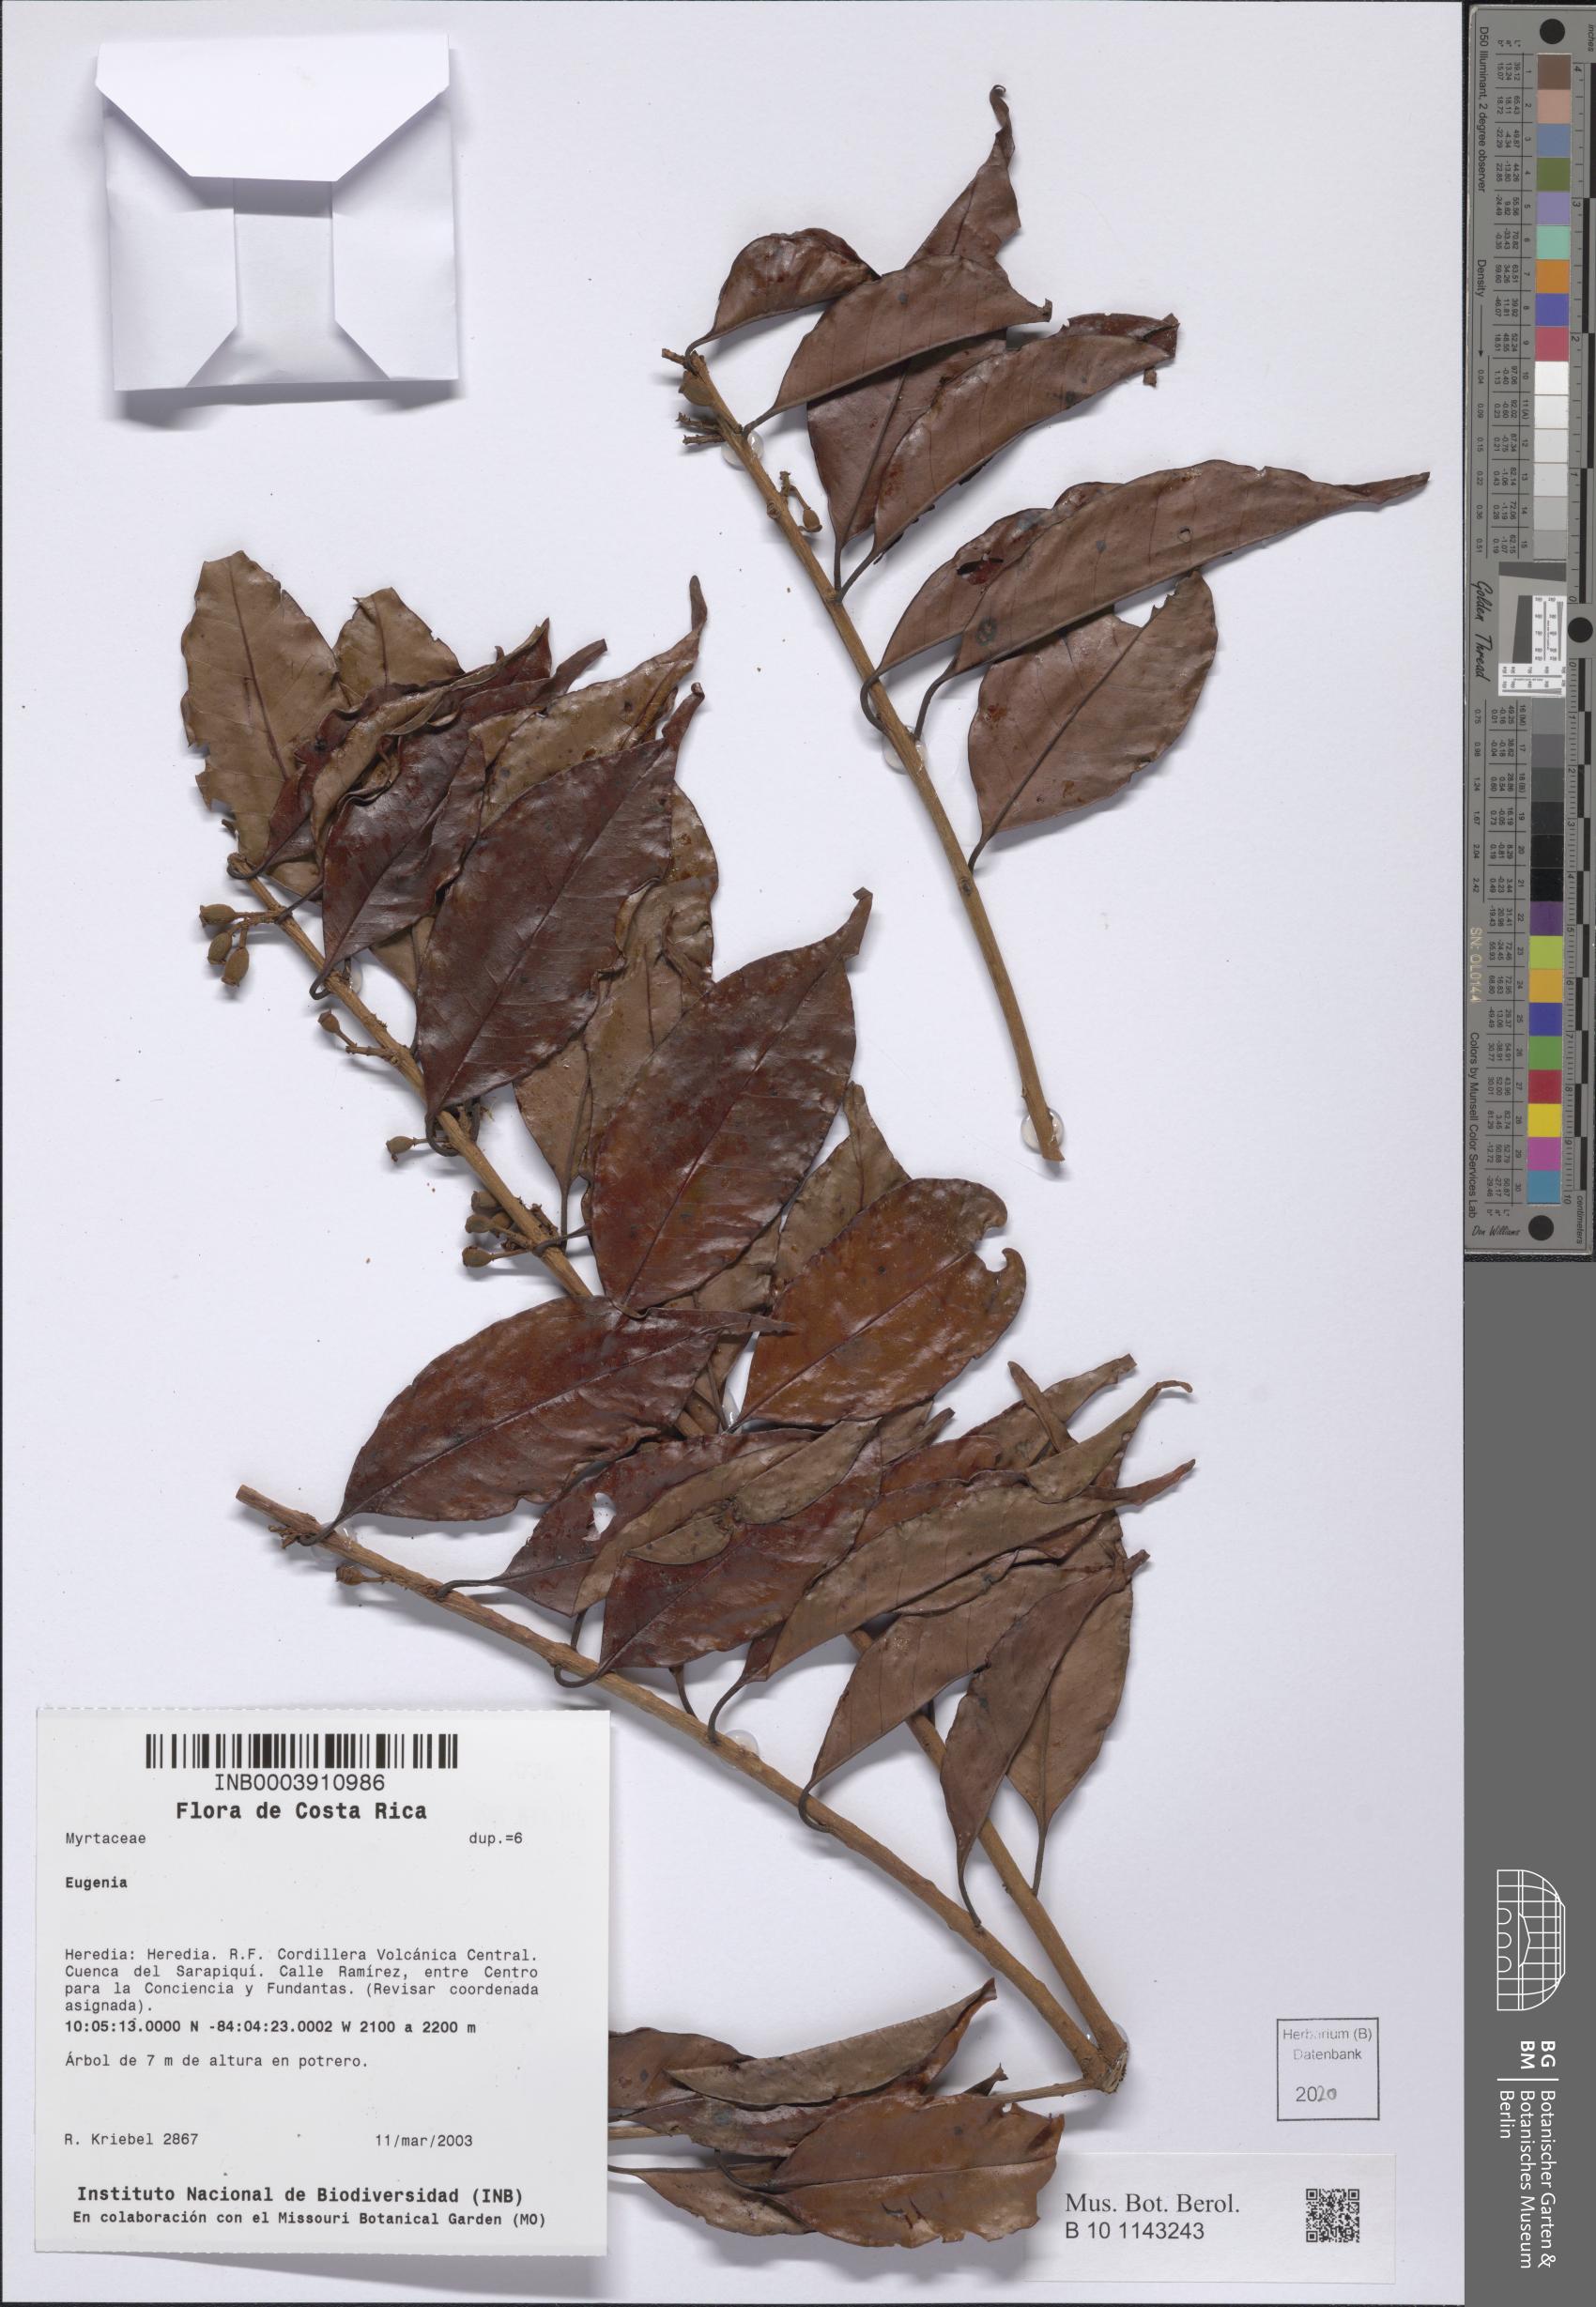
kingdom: Plantae
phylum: Tracheophyta
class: Magnoliopsida
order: Myrtales
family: Myrtaceae
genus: Eugenia
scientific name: Eugenia
